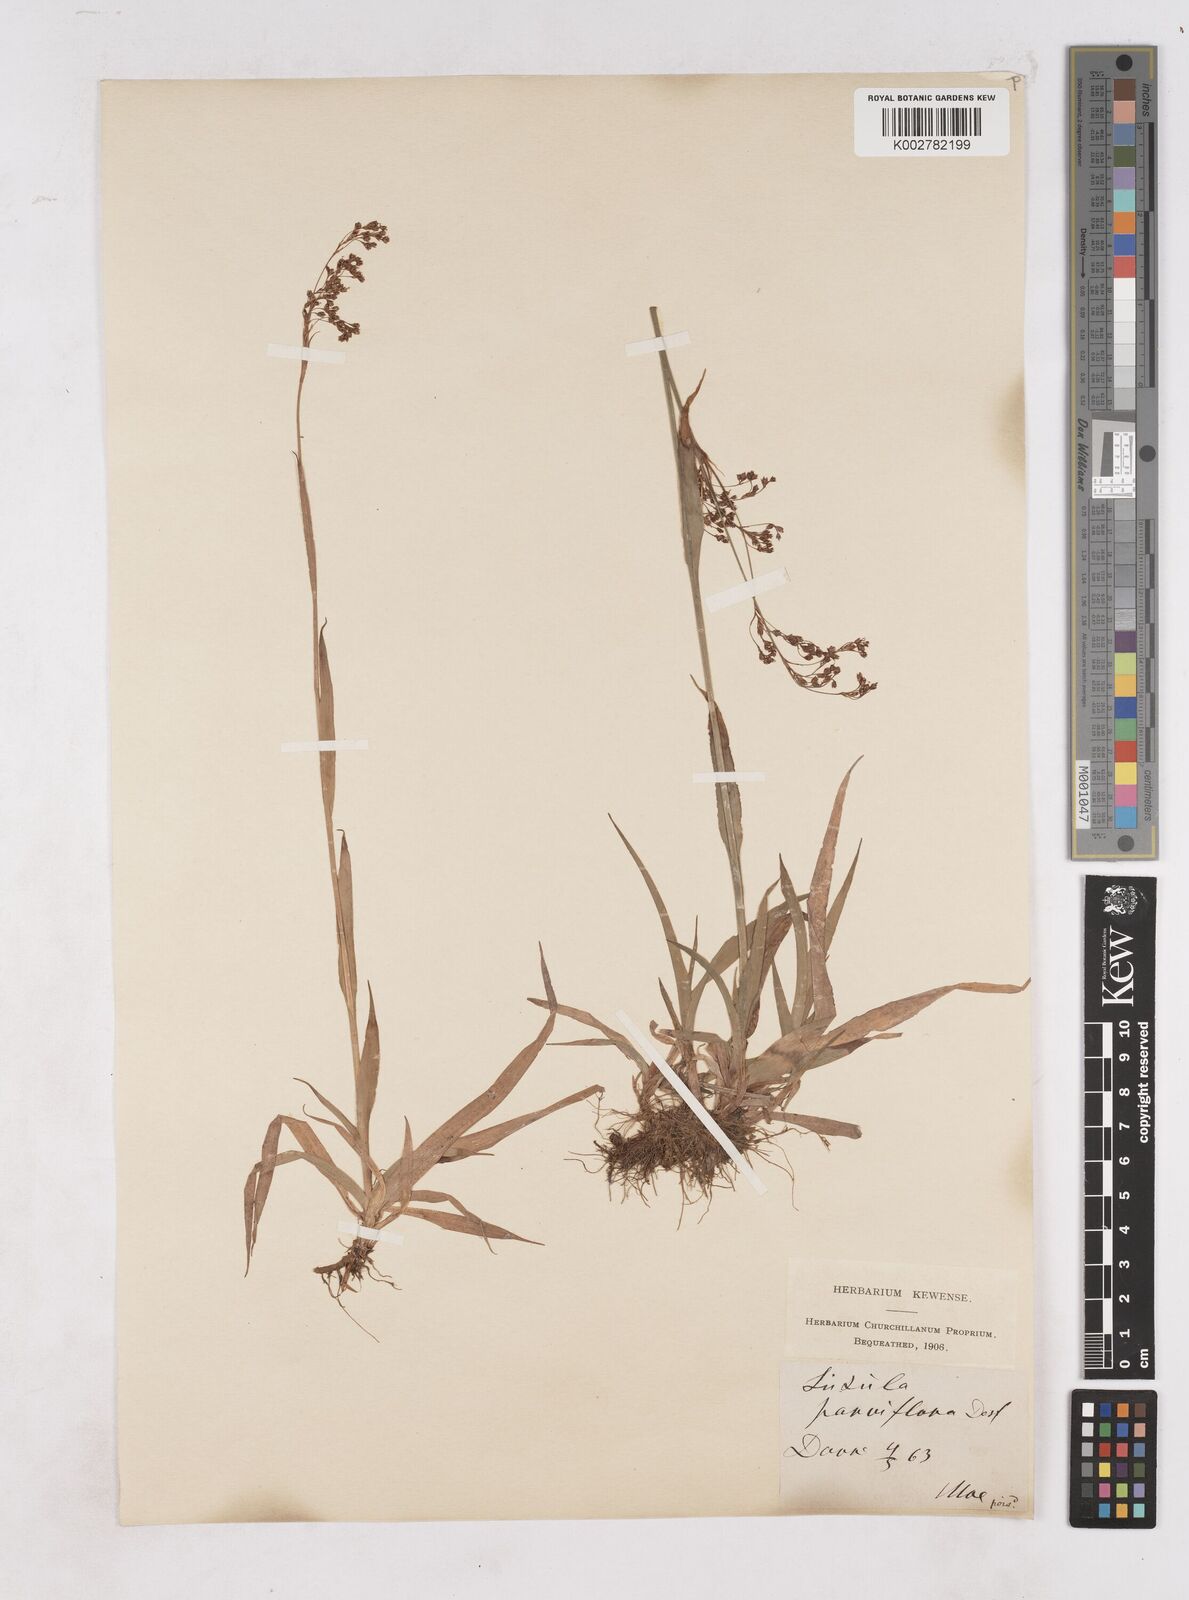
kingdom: Plantae
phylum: Tracheophyta
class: Liliopsida
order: Poales
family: Juncaceae
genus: Luzula
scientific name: Luzula parviflora
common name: Millet woodrush
